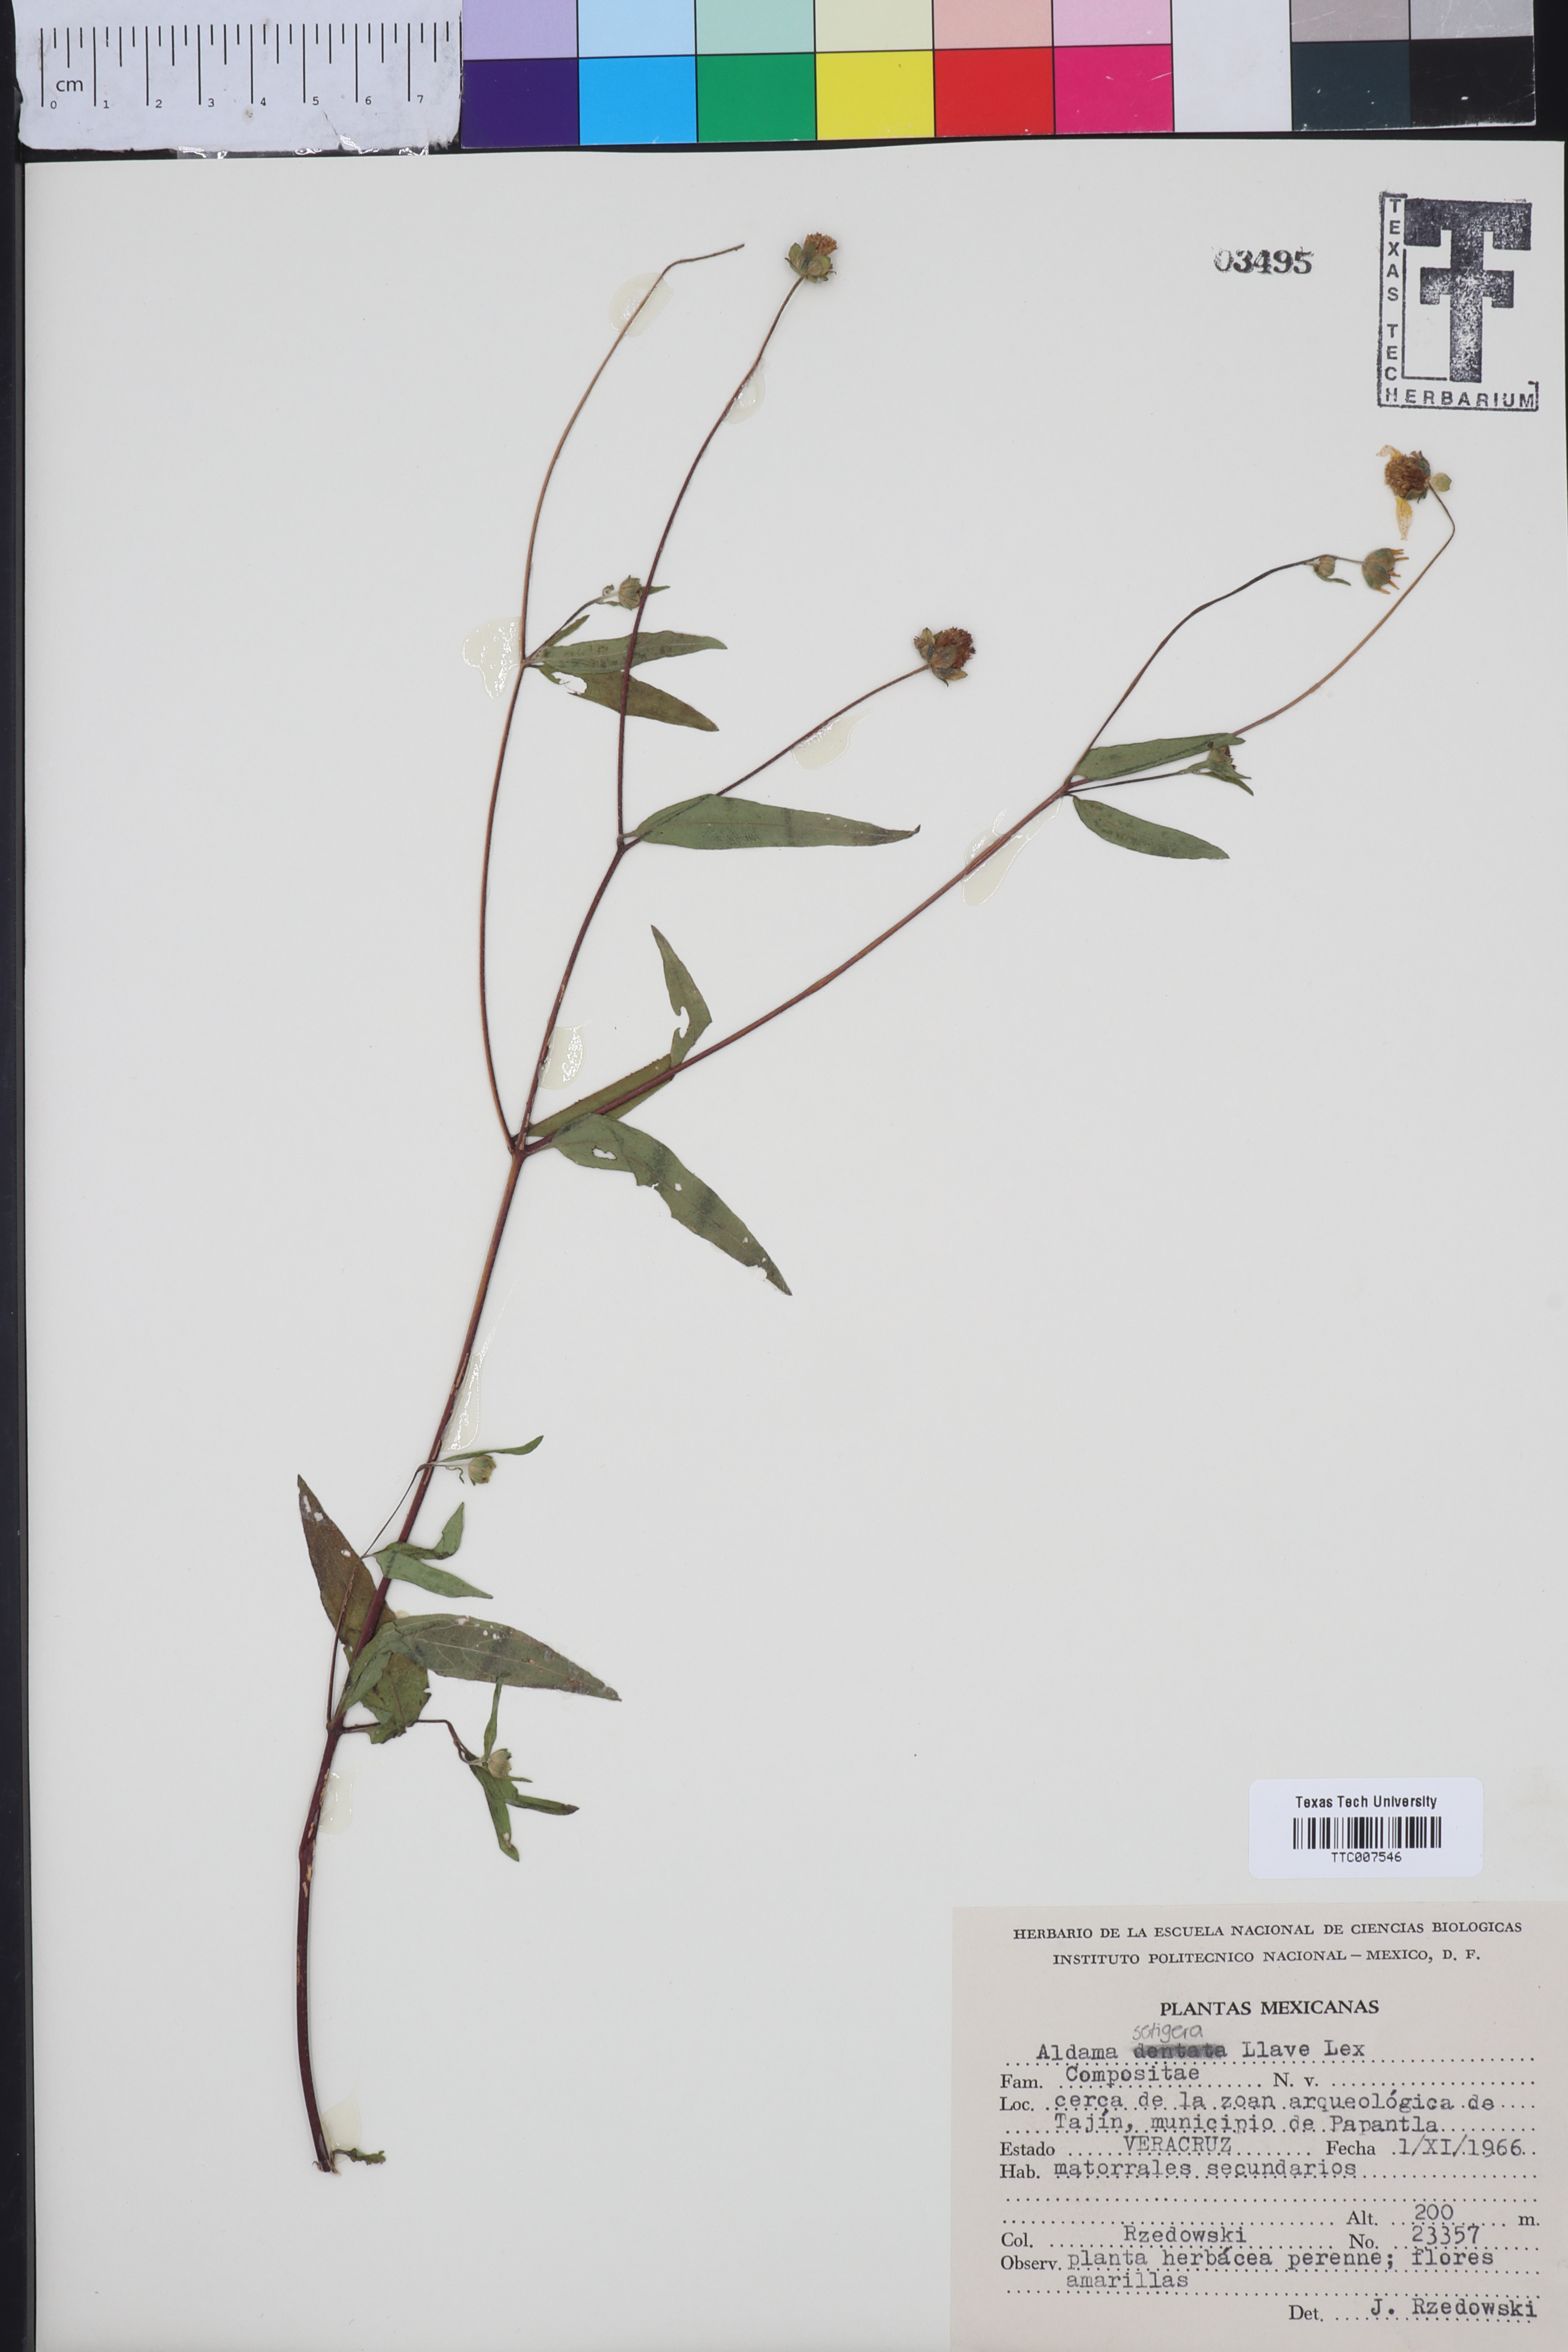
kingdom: Plantae
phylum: Tracheophyta
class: Magnoliopsida
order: Asterales
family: Asteraceae
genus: Aldama
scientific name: Aldama dentata
